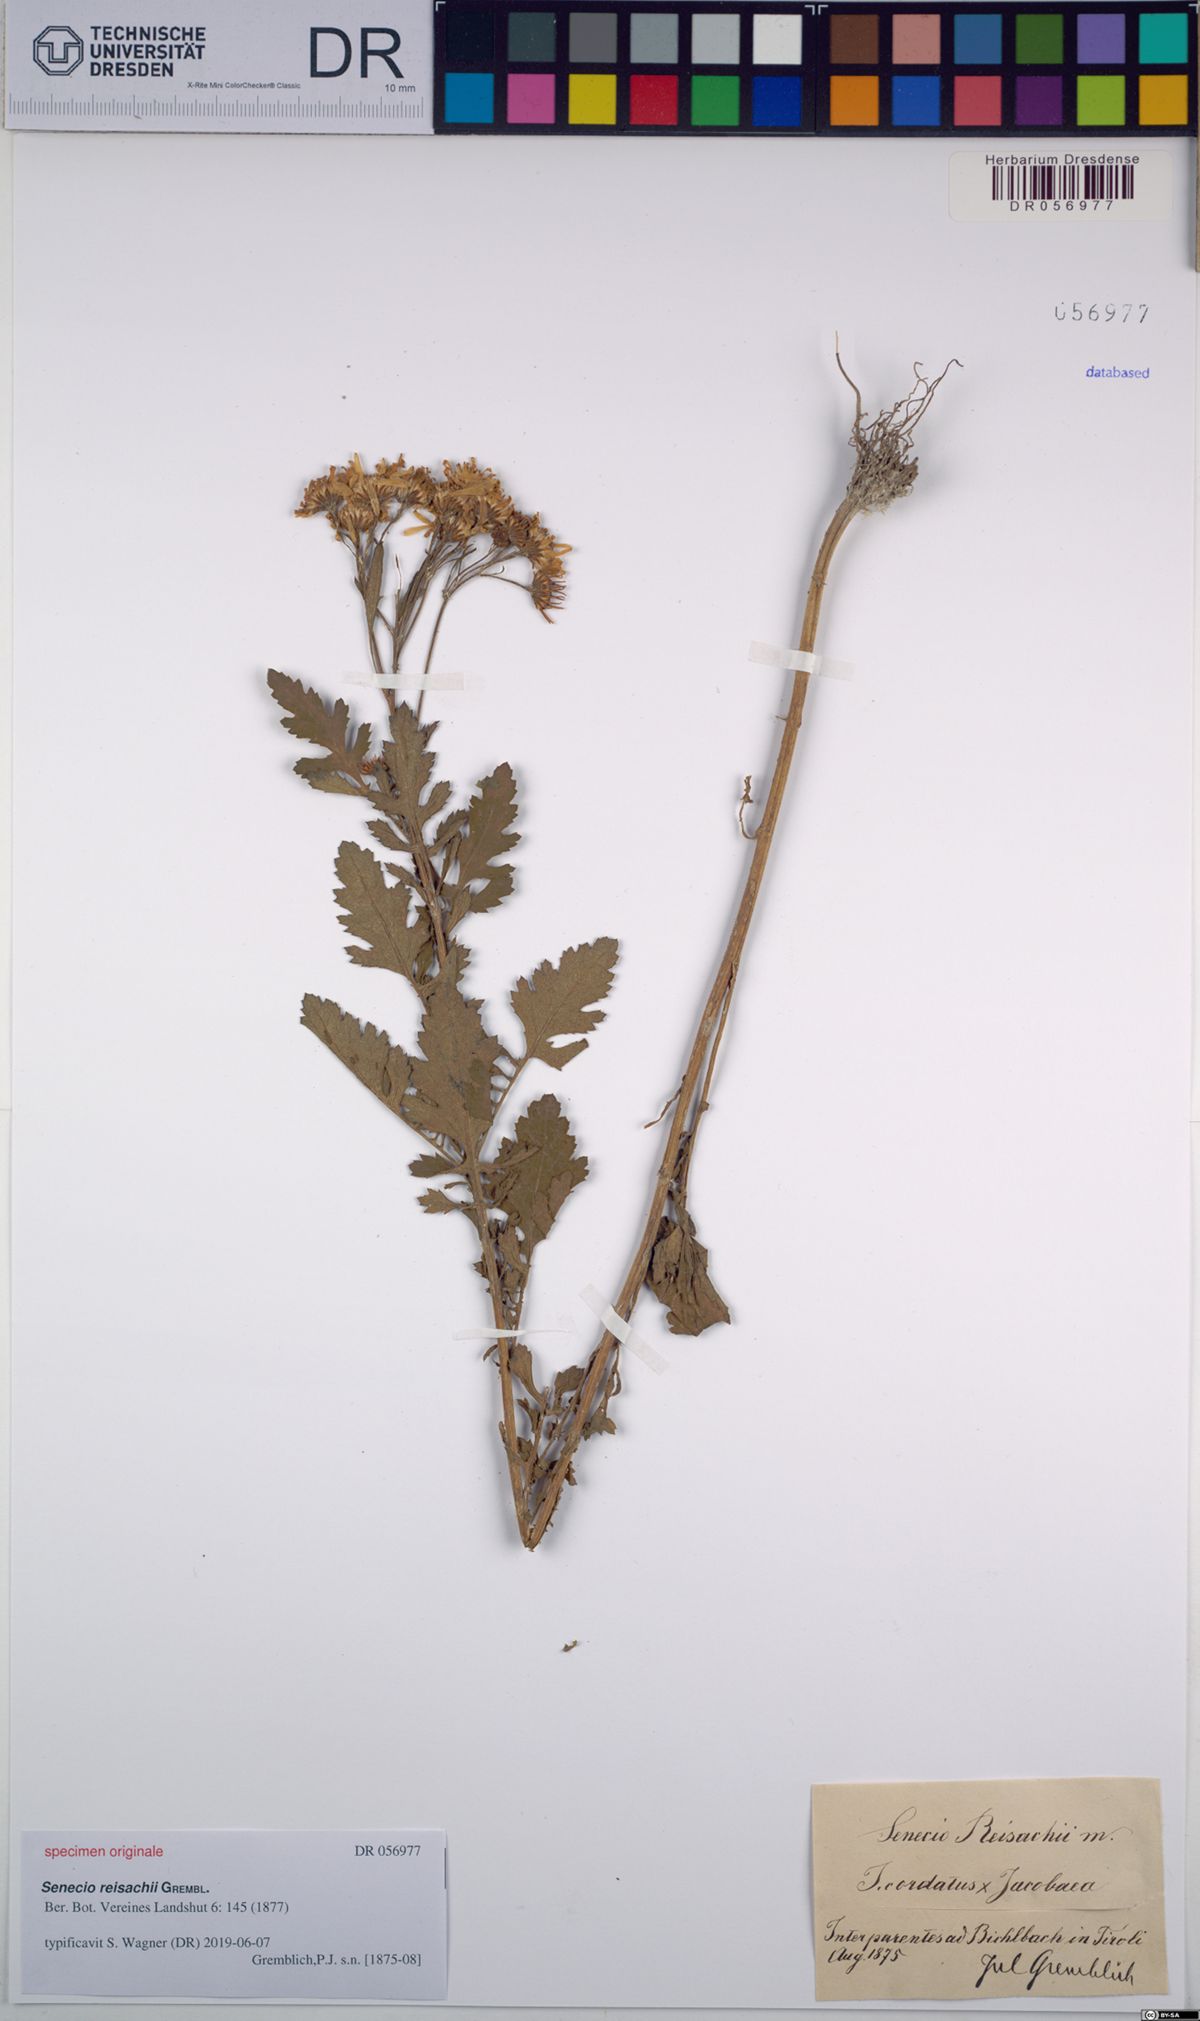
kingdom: Plantae
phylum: Tracheophyta
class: Magnoliopsida
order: Asterales
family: Asteraceae
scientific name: Asteraceae
